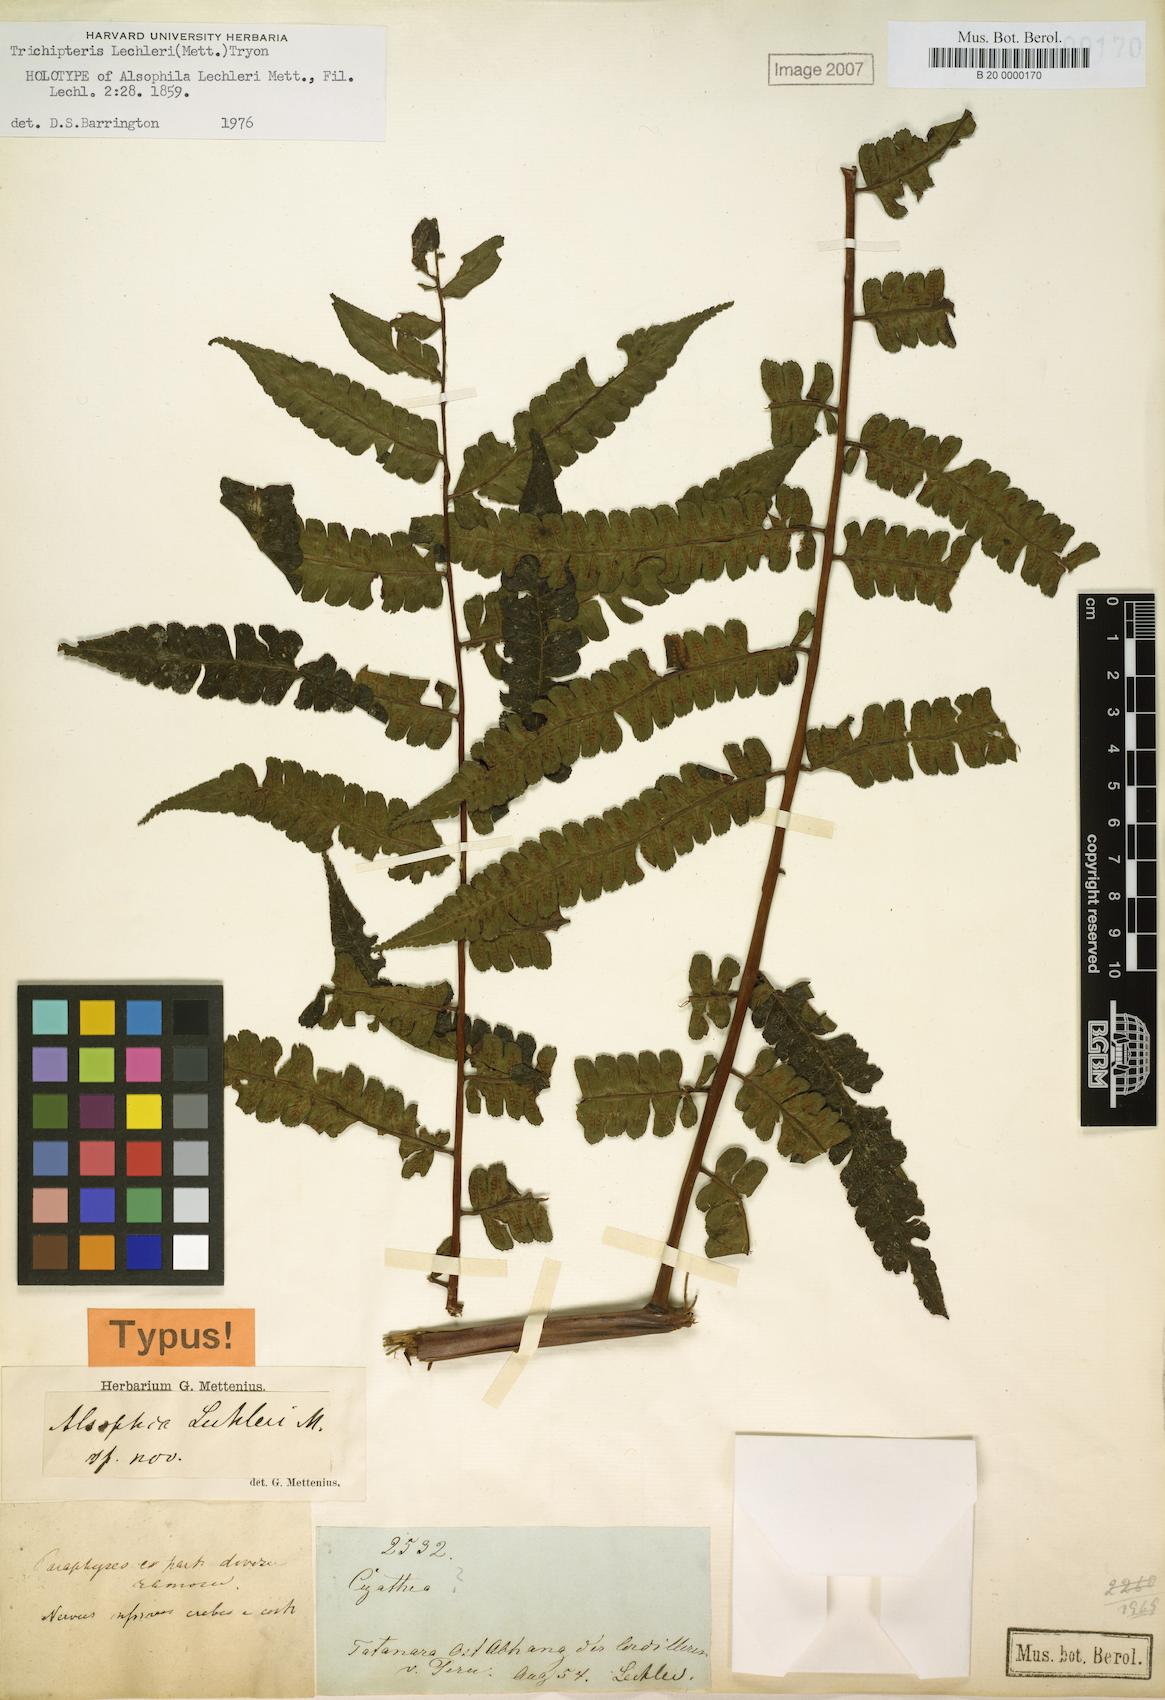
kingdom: Plantae
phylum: Tracheophyta
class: Polypodiopsida
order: Cyatheales
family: Cyatheaceae
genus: Cyathea
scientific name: Cyathea ulei
